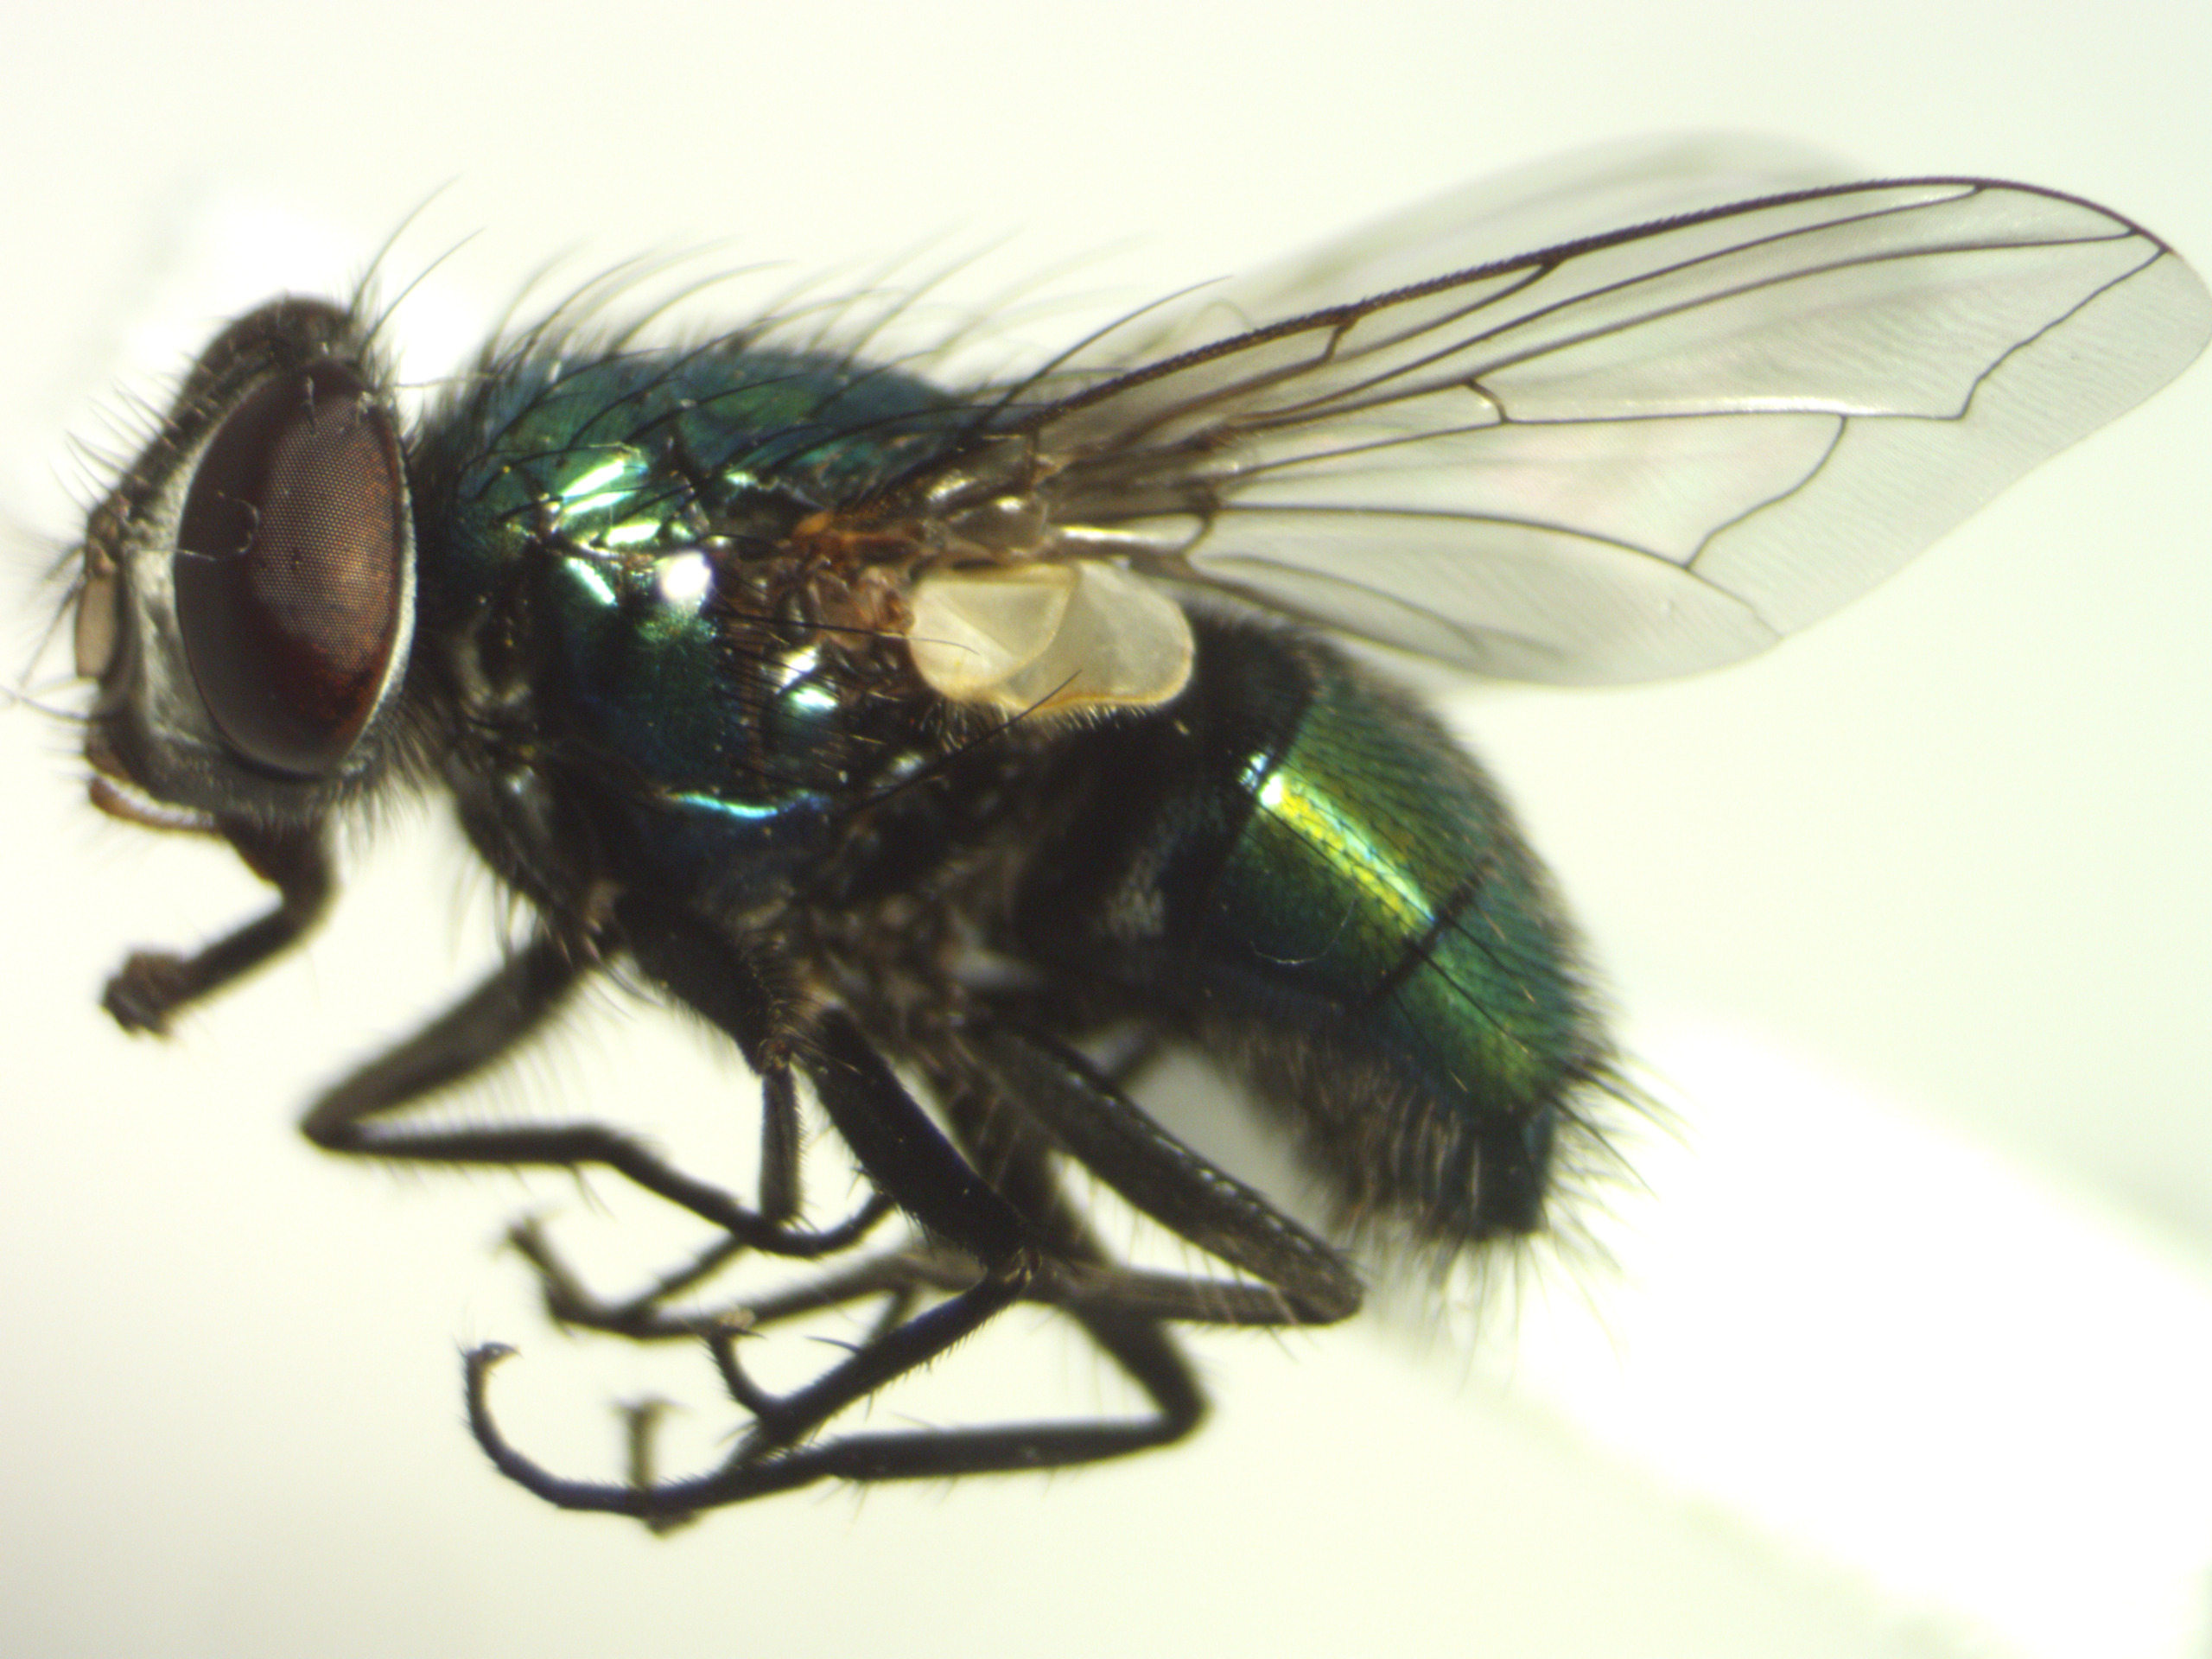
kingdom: Animalia
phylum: Arthropoda
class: Insecta
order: Diptera
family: Calliphoridae
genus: Lucilia
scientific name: Lucilia sericata
